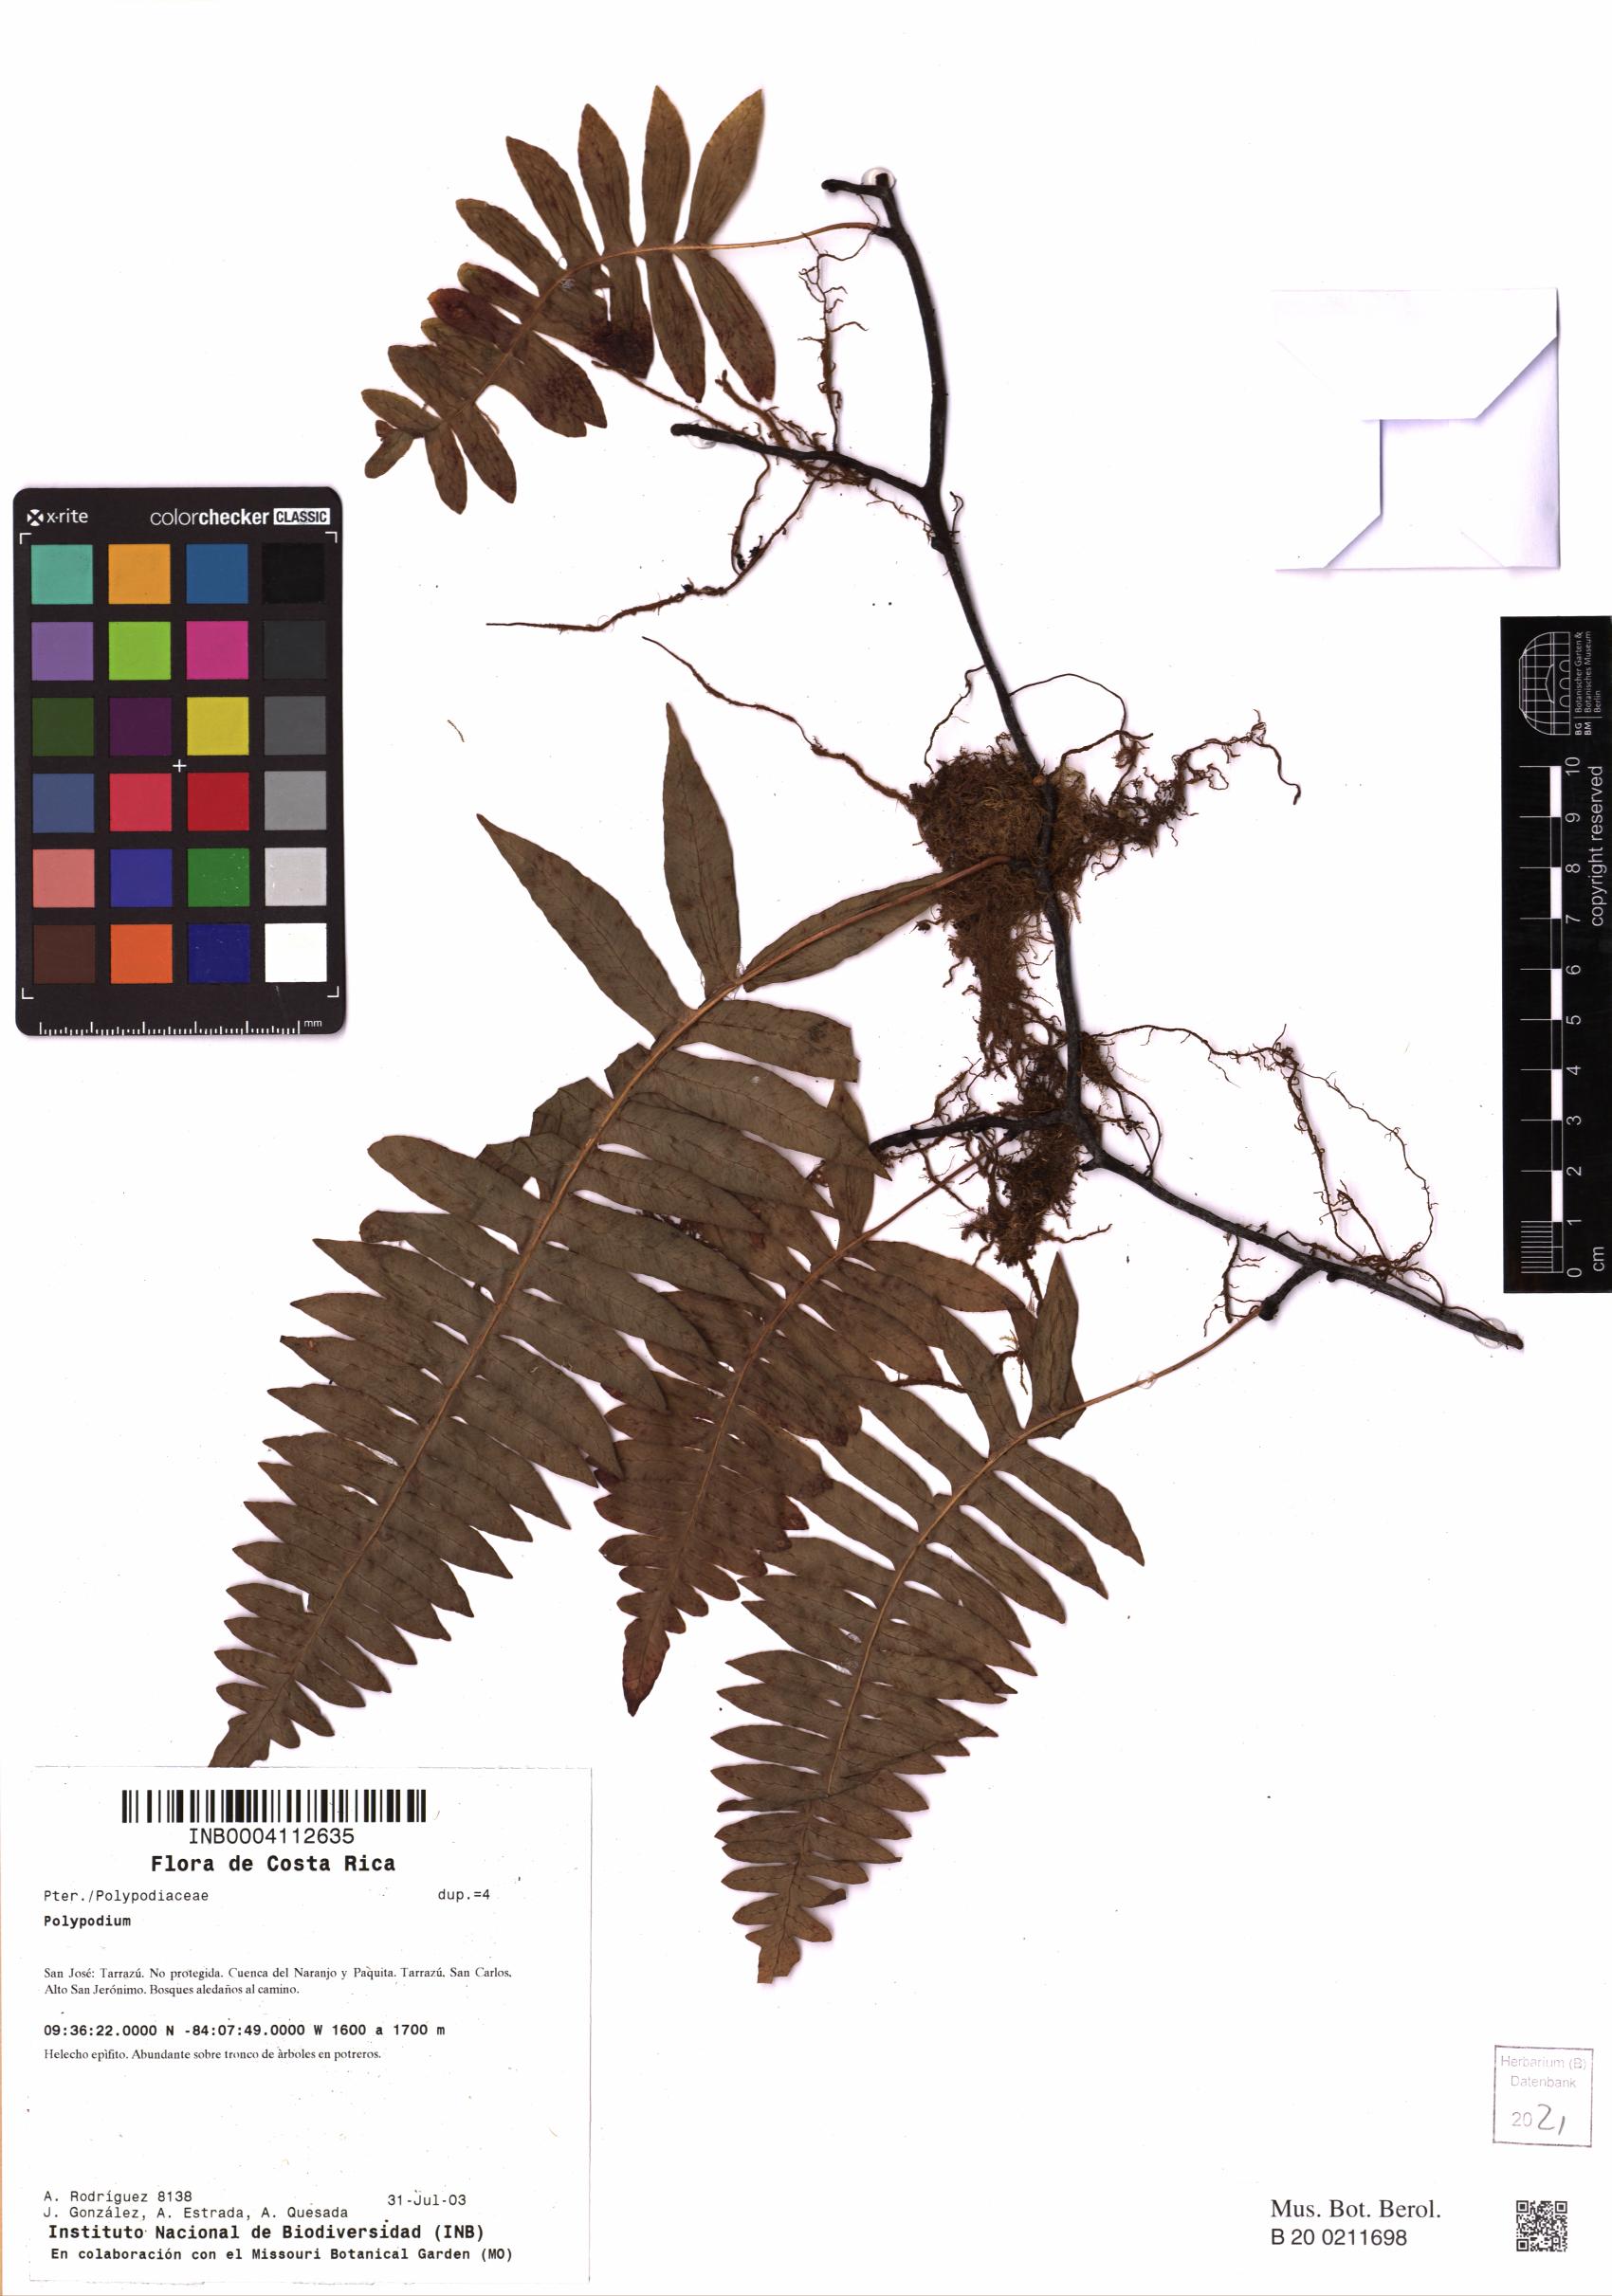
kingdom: Plantae
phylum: Tracheophyta
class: Polypodiopsida
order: Polypodiales
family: Polypodiaceae
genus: Polypodium
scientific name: Polypodium
